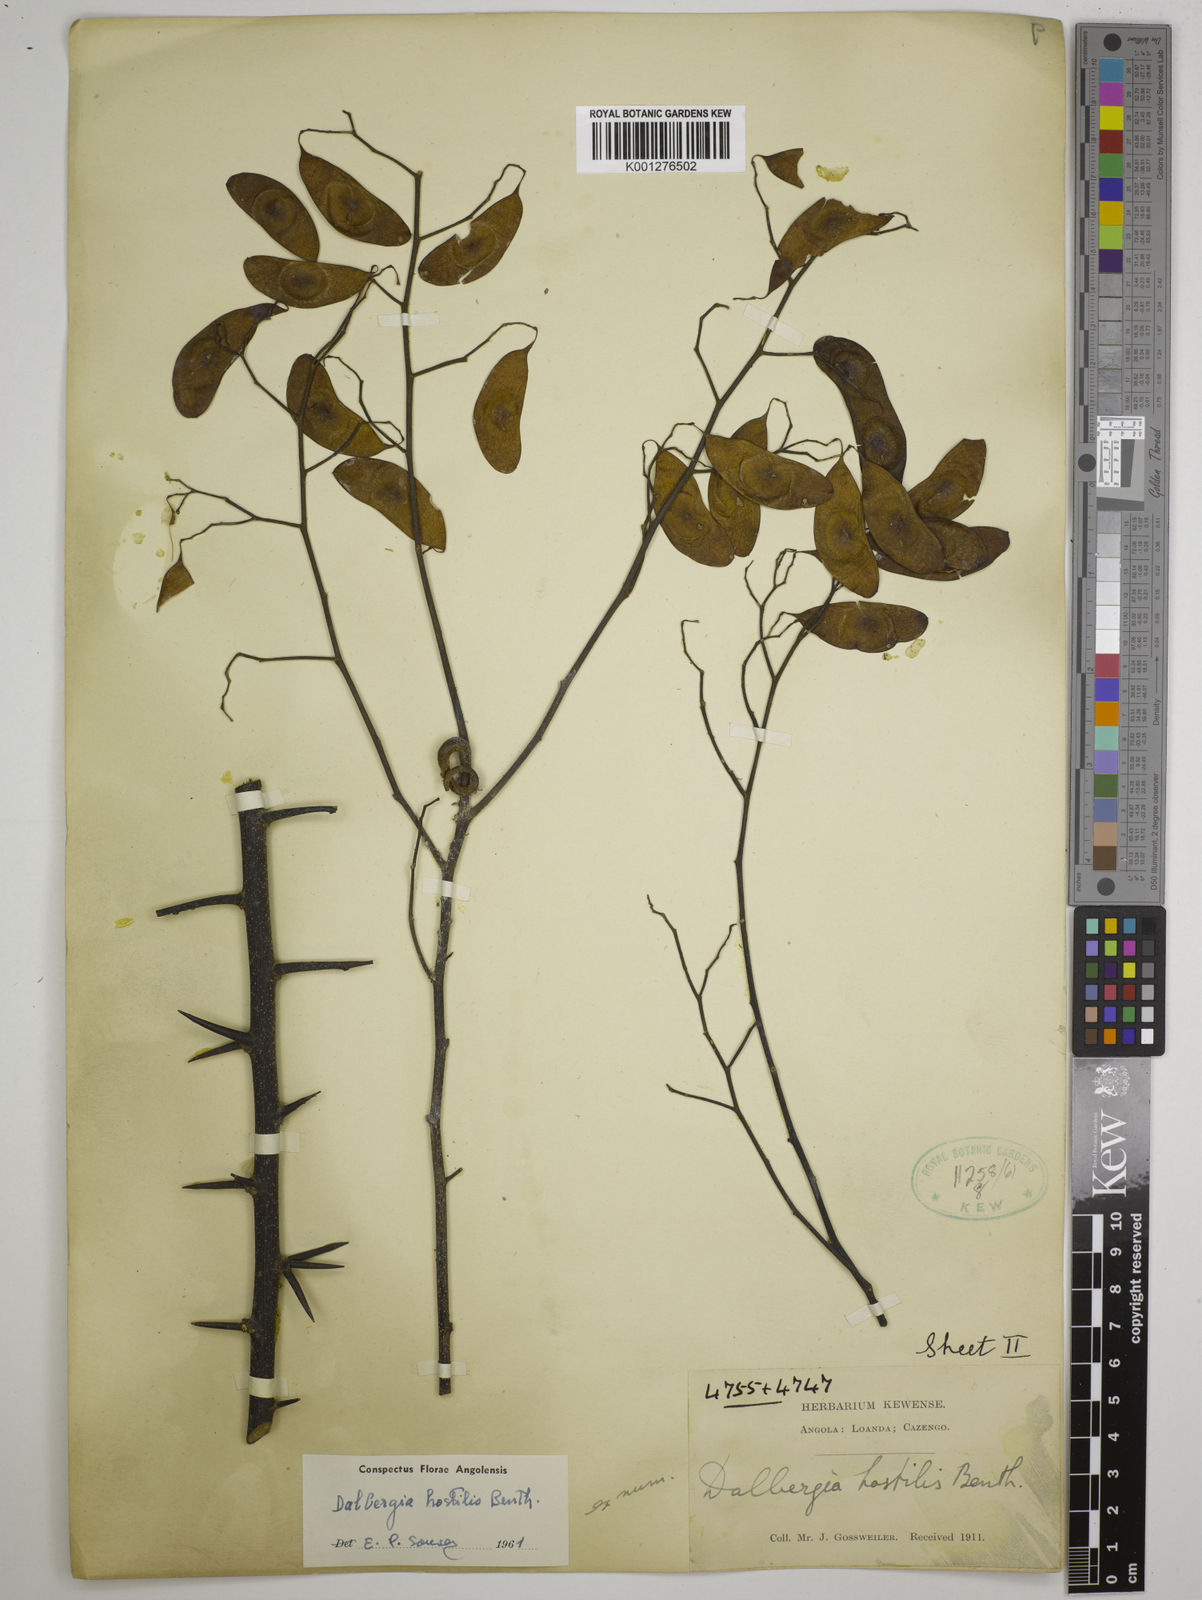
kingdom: Plantae
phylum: Tracheophyta
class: Magnoliopsida
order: Fabales
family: Fabaceae
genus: Dalbergia
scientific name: Dalbergia hostilis
